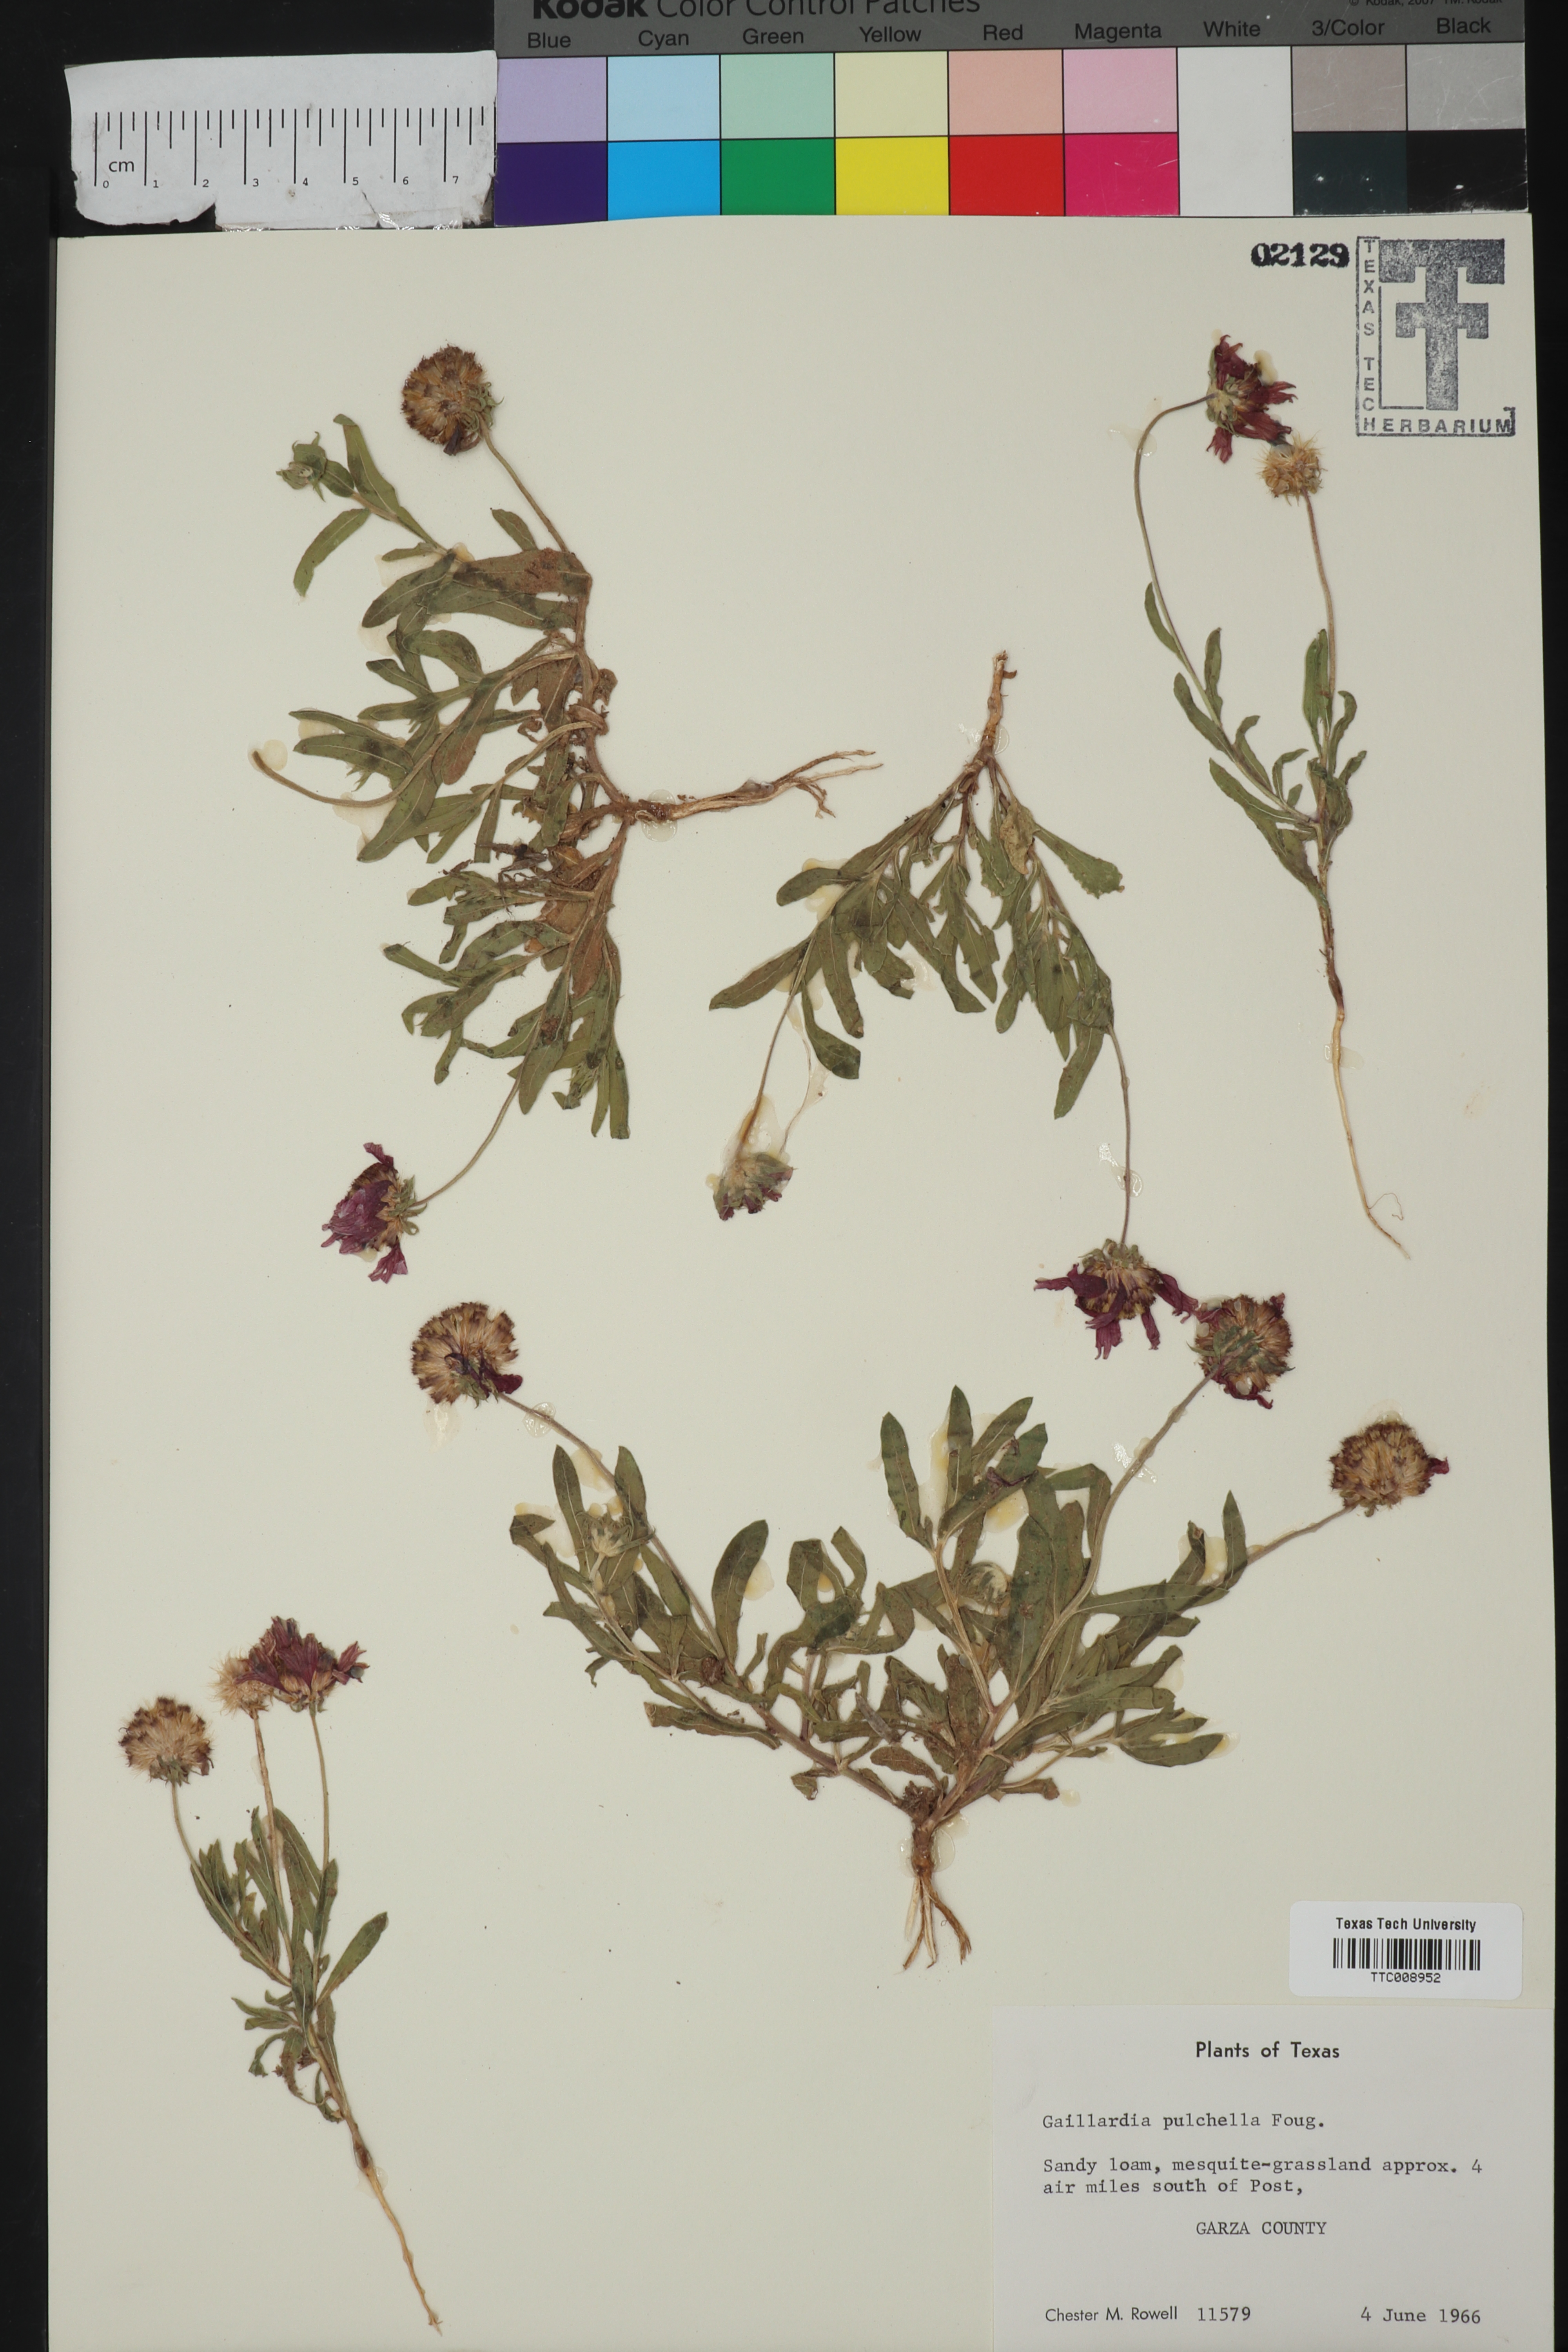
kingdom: Plantae
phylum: Tracheophyta
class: Magnoliopsida
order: Asterales
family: Asteraceae
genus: Gaillardia
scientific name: Gaillardia pulchella
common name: Firewheel
